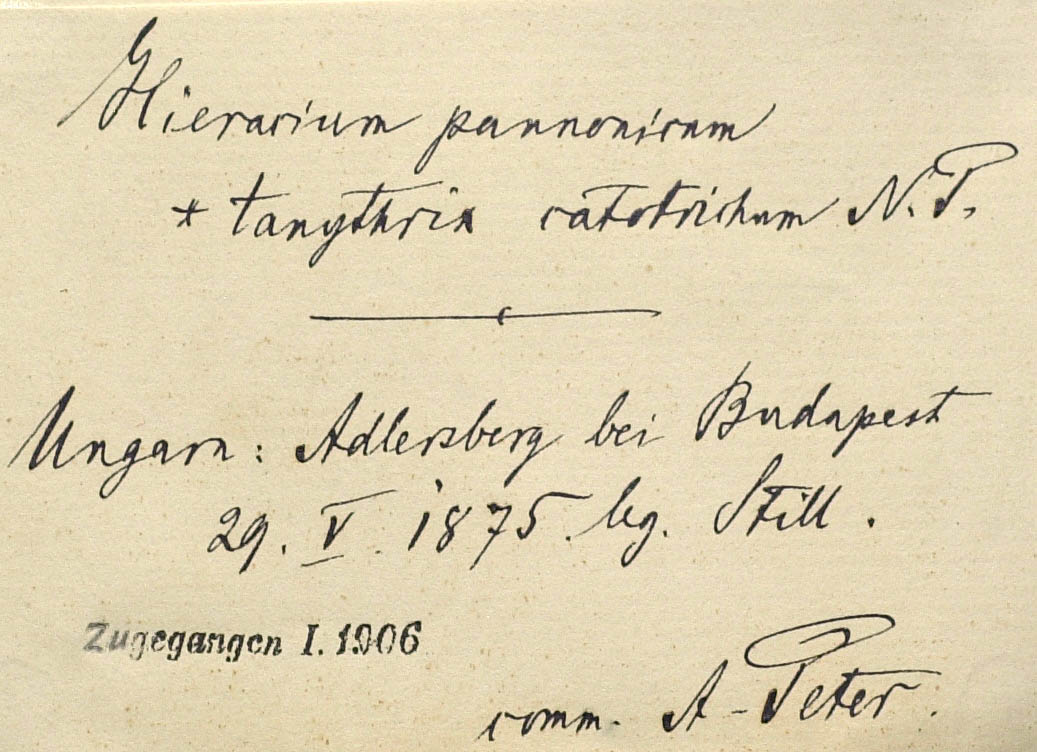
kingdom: Plantae
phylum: Tracheophyta
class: Magnoliopsida
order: Asterales
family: Asteraceae
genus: Pilosella
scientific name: Pilosella auriculoides
